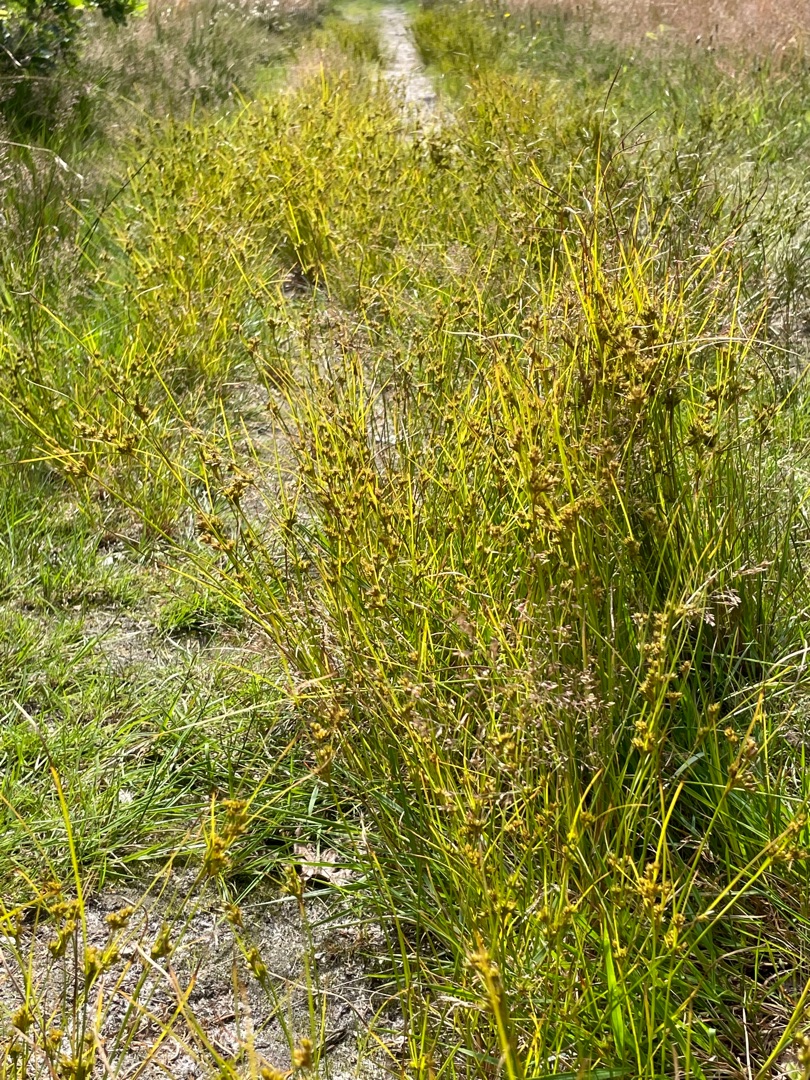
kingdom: Plantae
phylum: Tracheophyta
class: Liliopsida
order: Poales
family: Juncaceae
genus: Juncus
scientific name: Juncus tenuis
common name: Tue-siv
